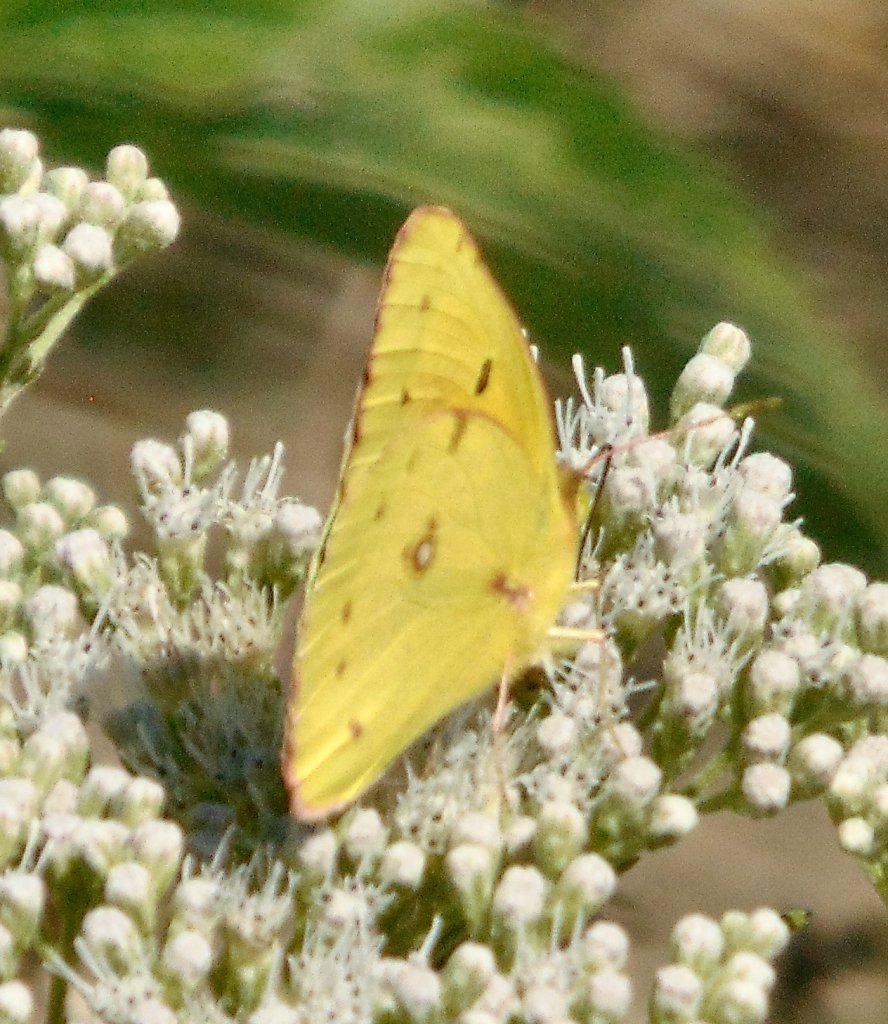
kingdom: Animalia
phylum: Arthropoda
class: Insecta
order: Lepidoptera
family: Pieridae
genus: Colias
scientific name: Colias eurytheme
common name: Orange Sulphur
